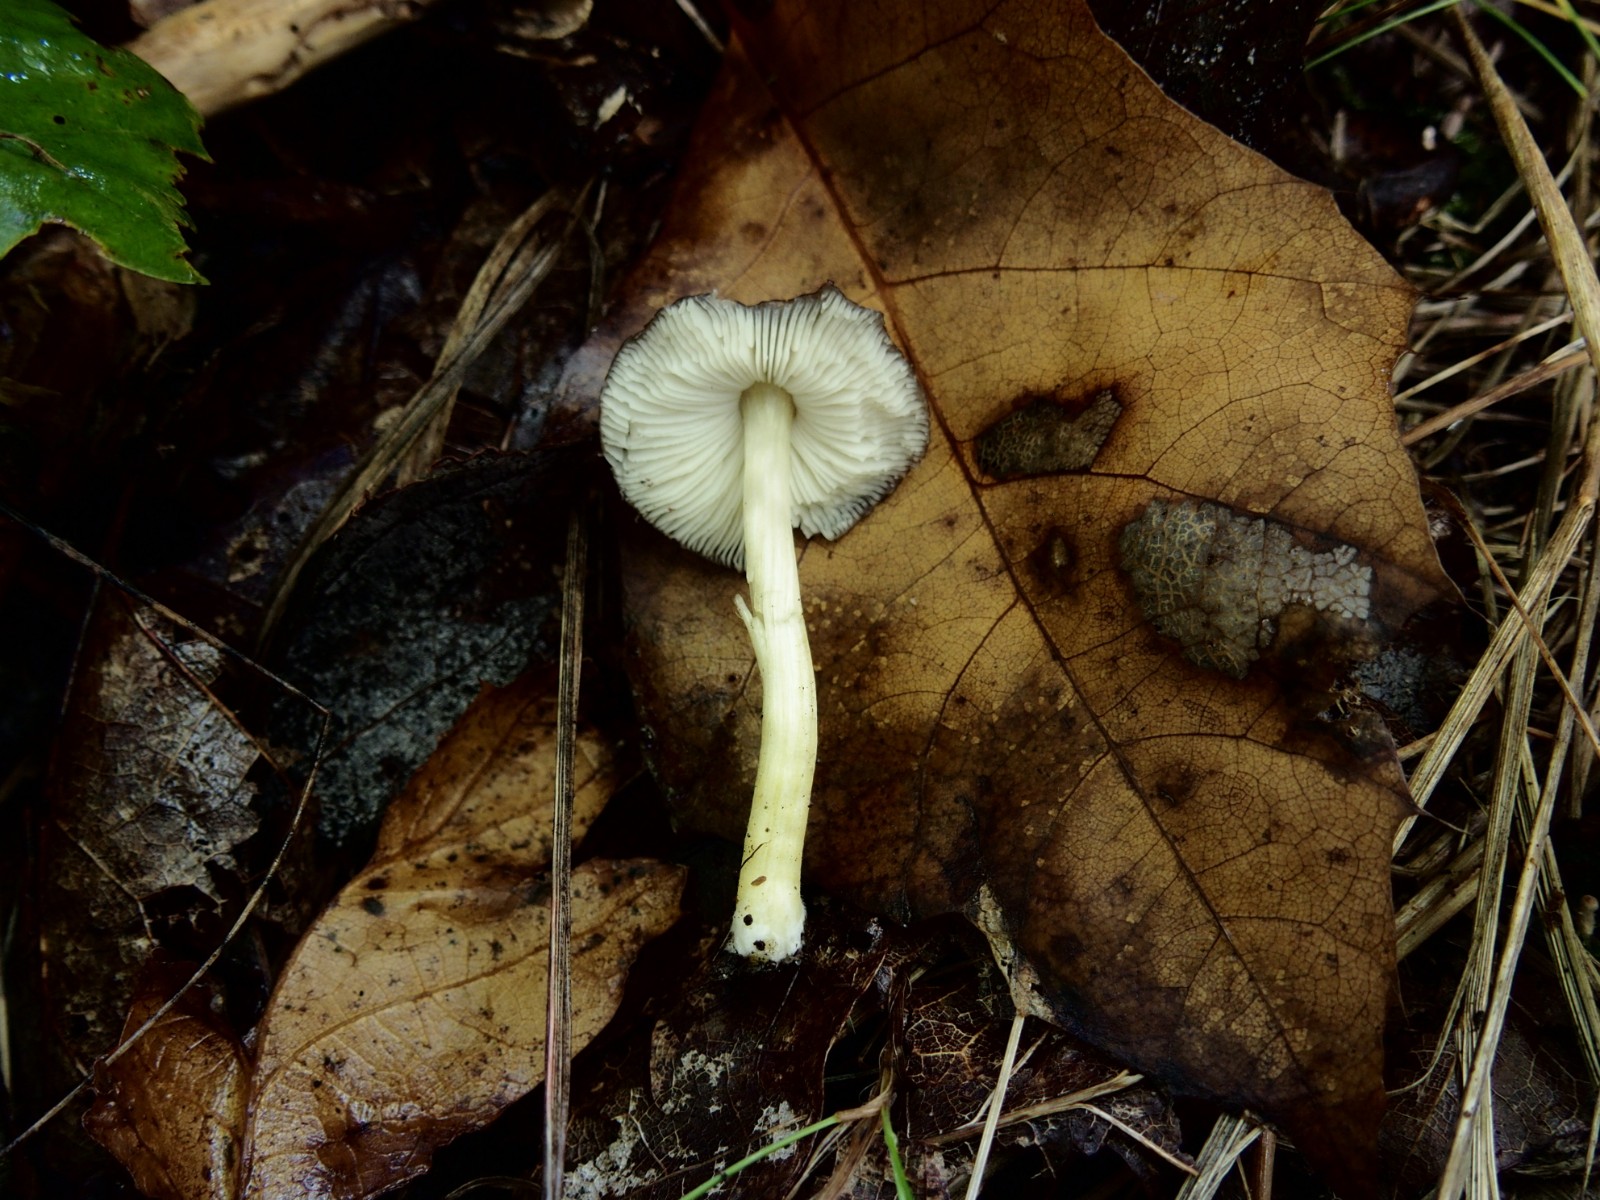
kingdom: Fungi
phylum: Basidiomycota
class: Agaricomycetes
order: Agaricales
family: Pluteaceae
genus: Pluteus
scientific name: Pluteus romellii
